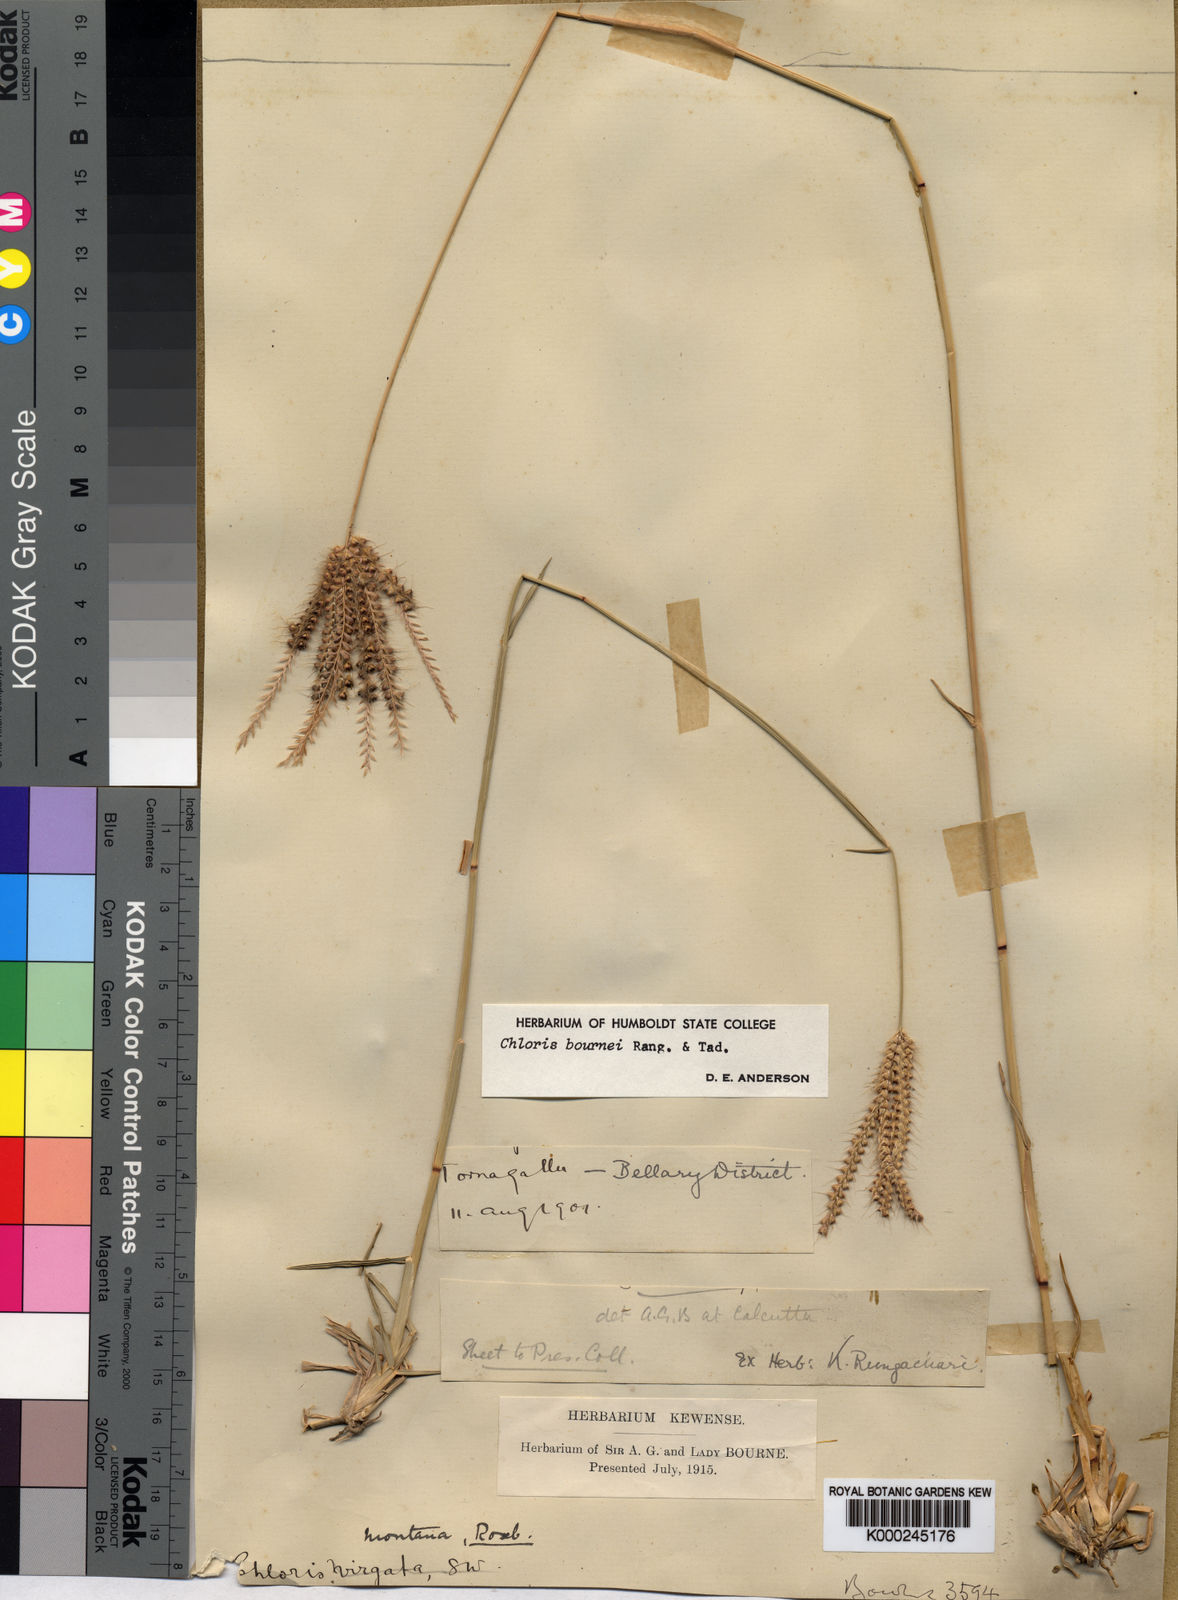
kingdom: Plantae
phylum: Tracheophyta
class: Liliopsida
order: Poales
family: Poaceae
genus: Chloris
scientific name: Chloris bournei
